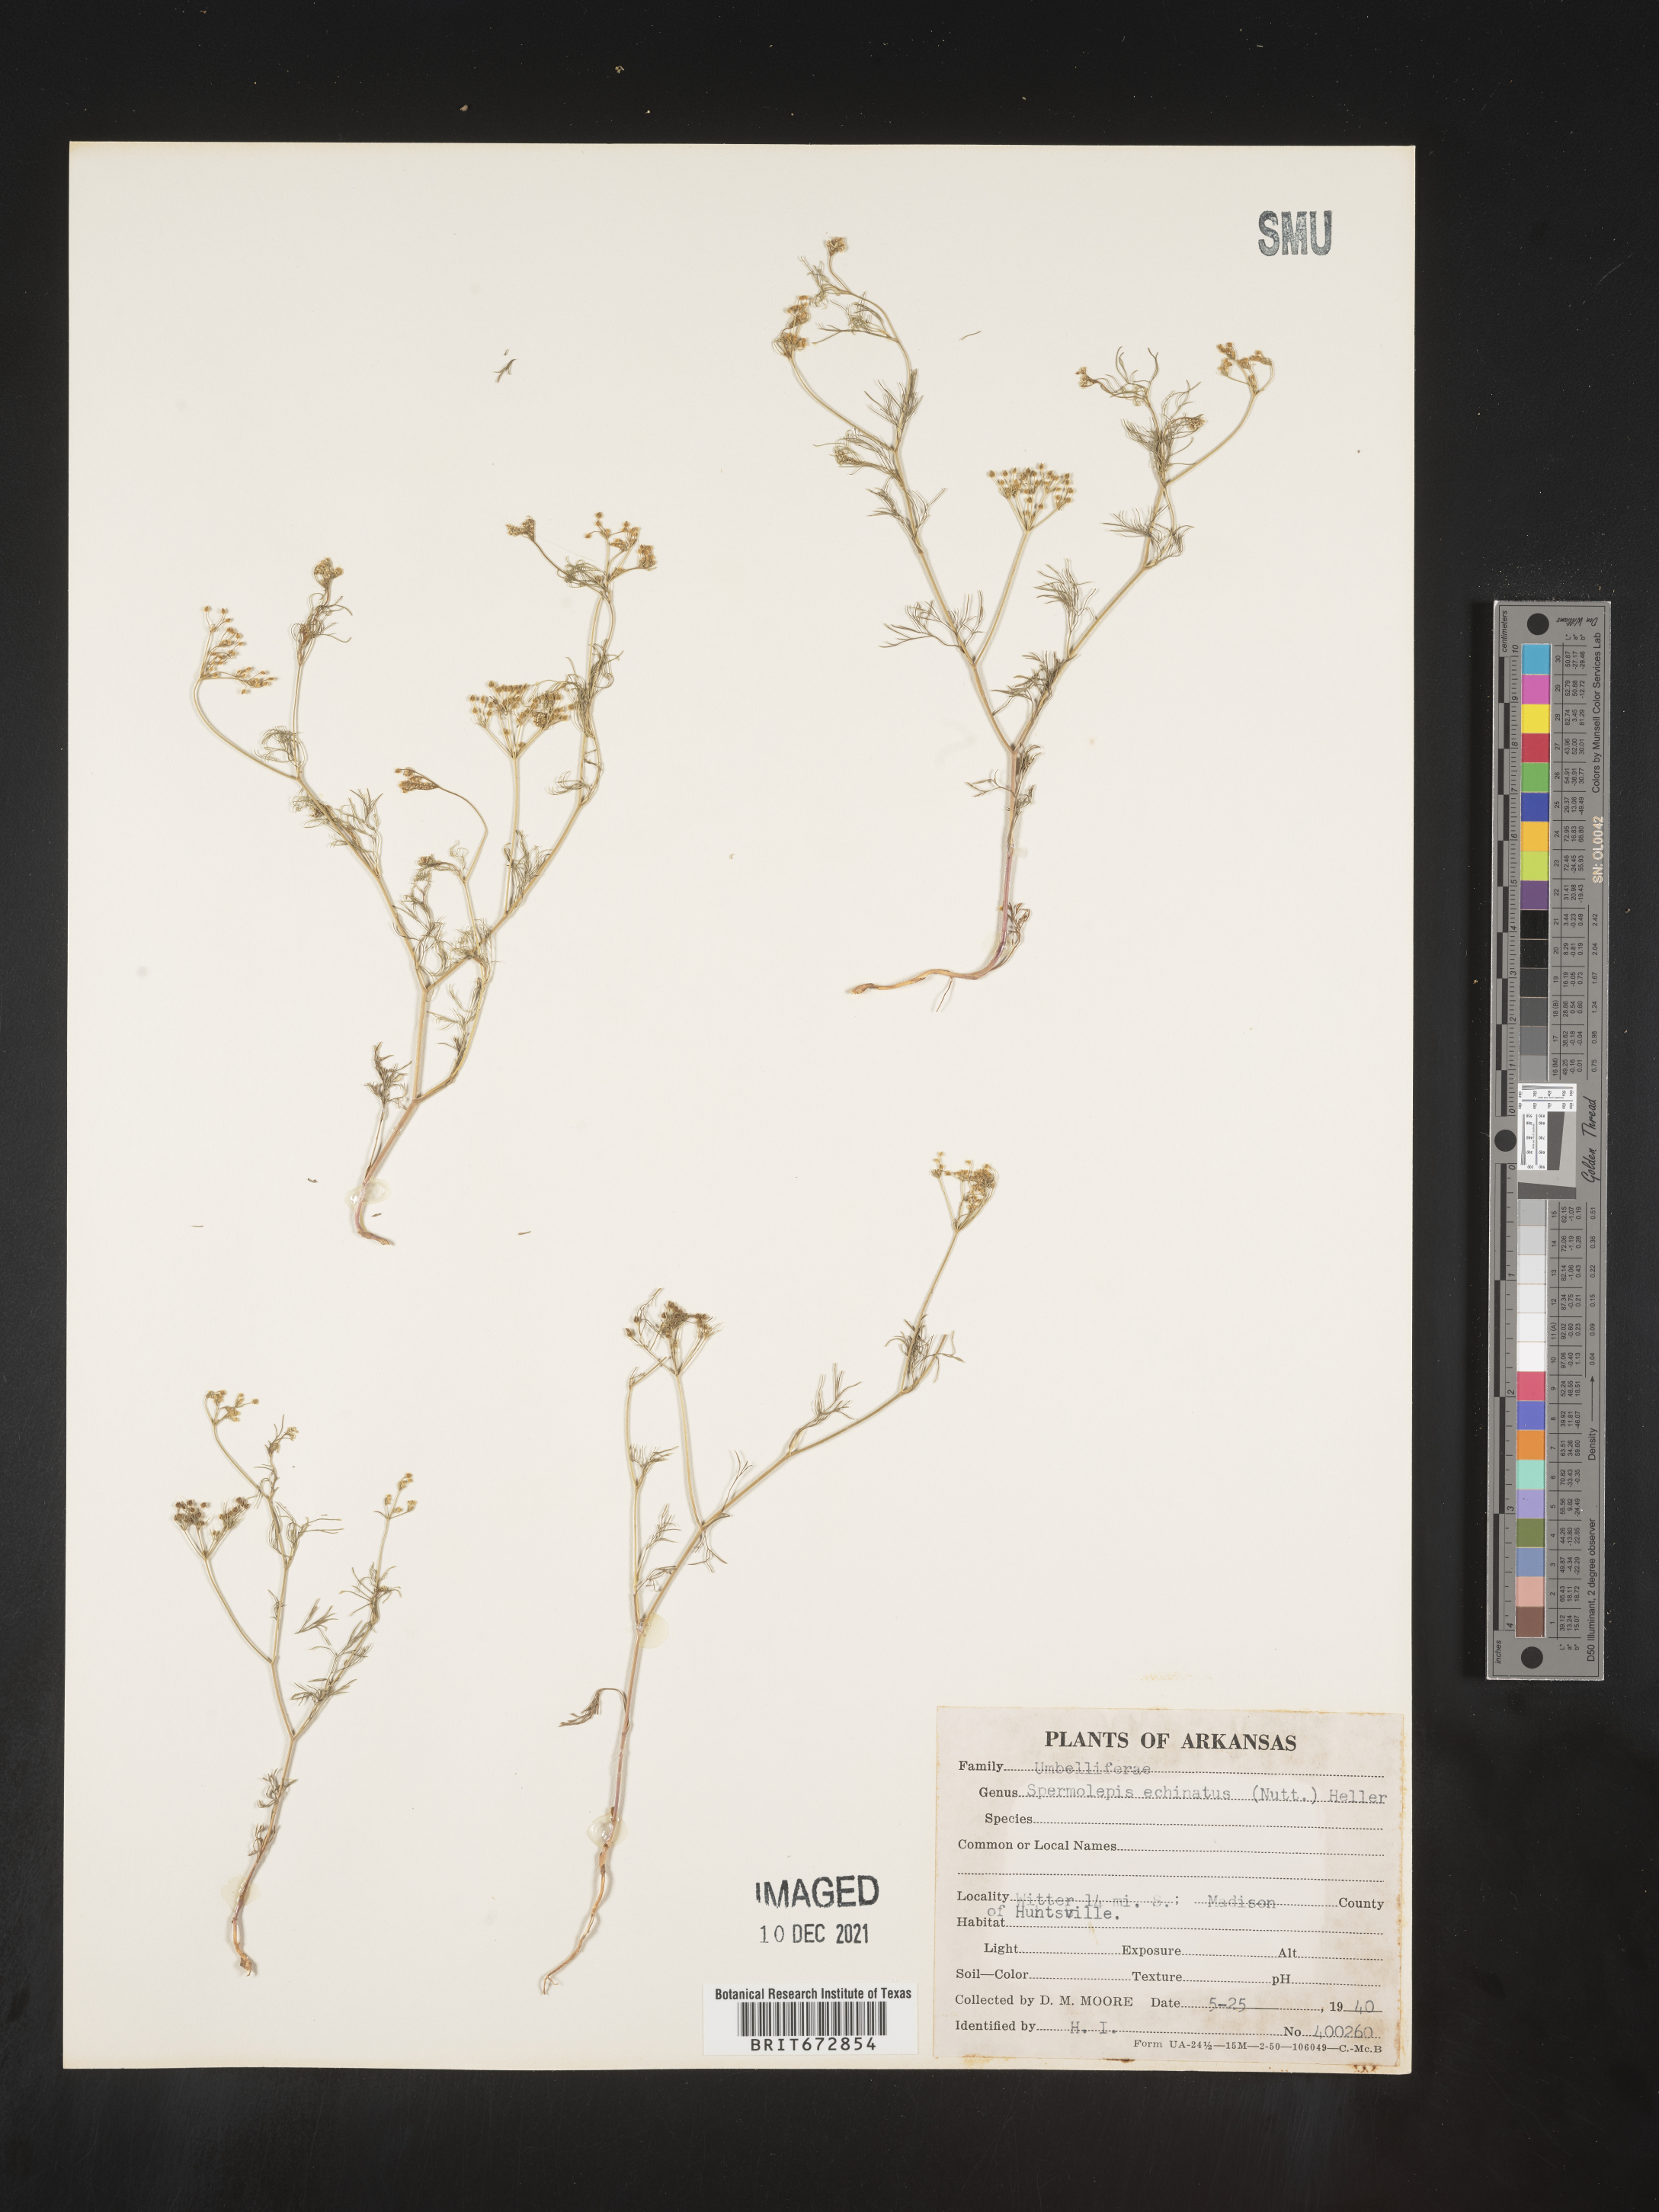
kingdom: Plantae
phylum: Tracheophyta
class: Magnoliopsida
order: Apiales
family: Apiaceae
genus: Spermolepis
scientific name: Spermolepis echinata
